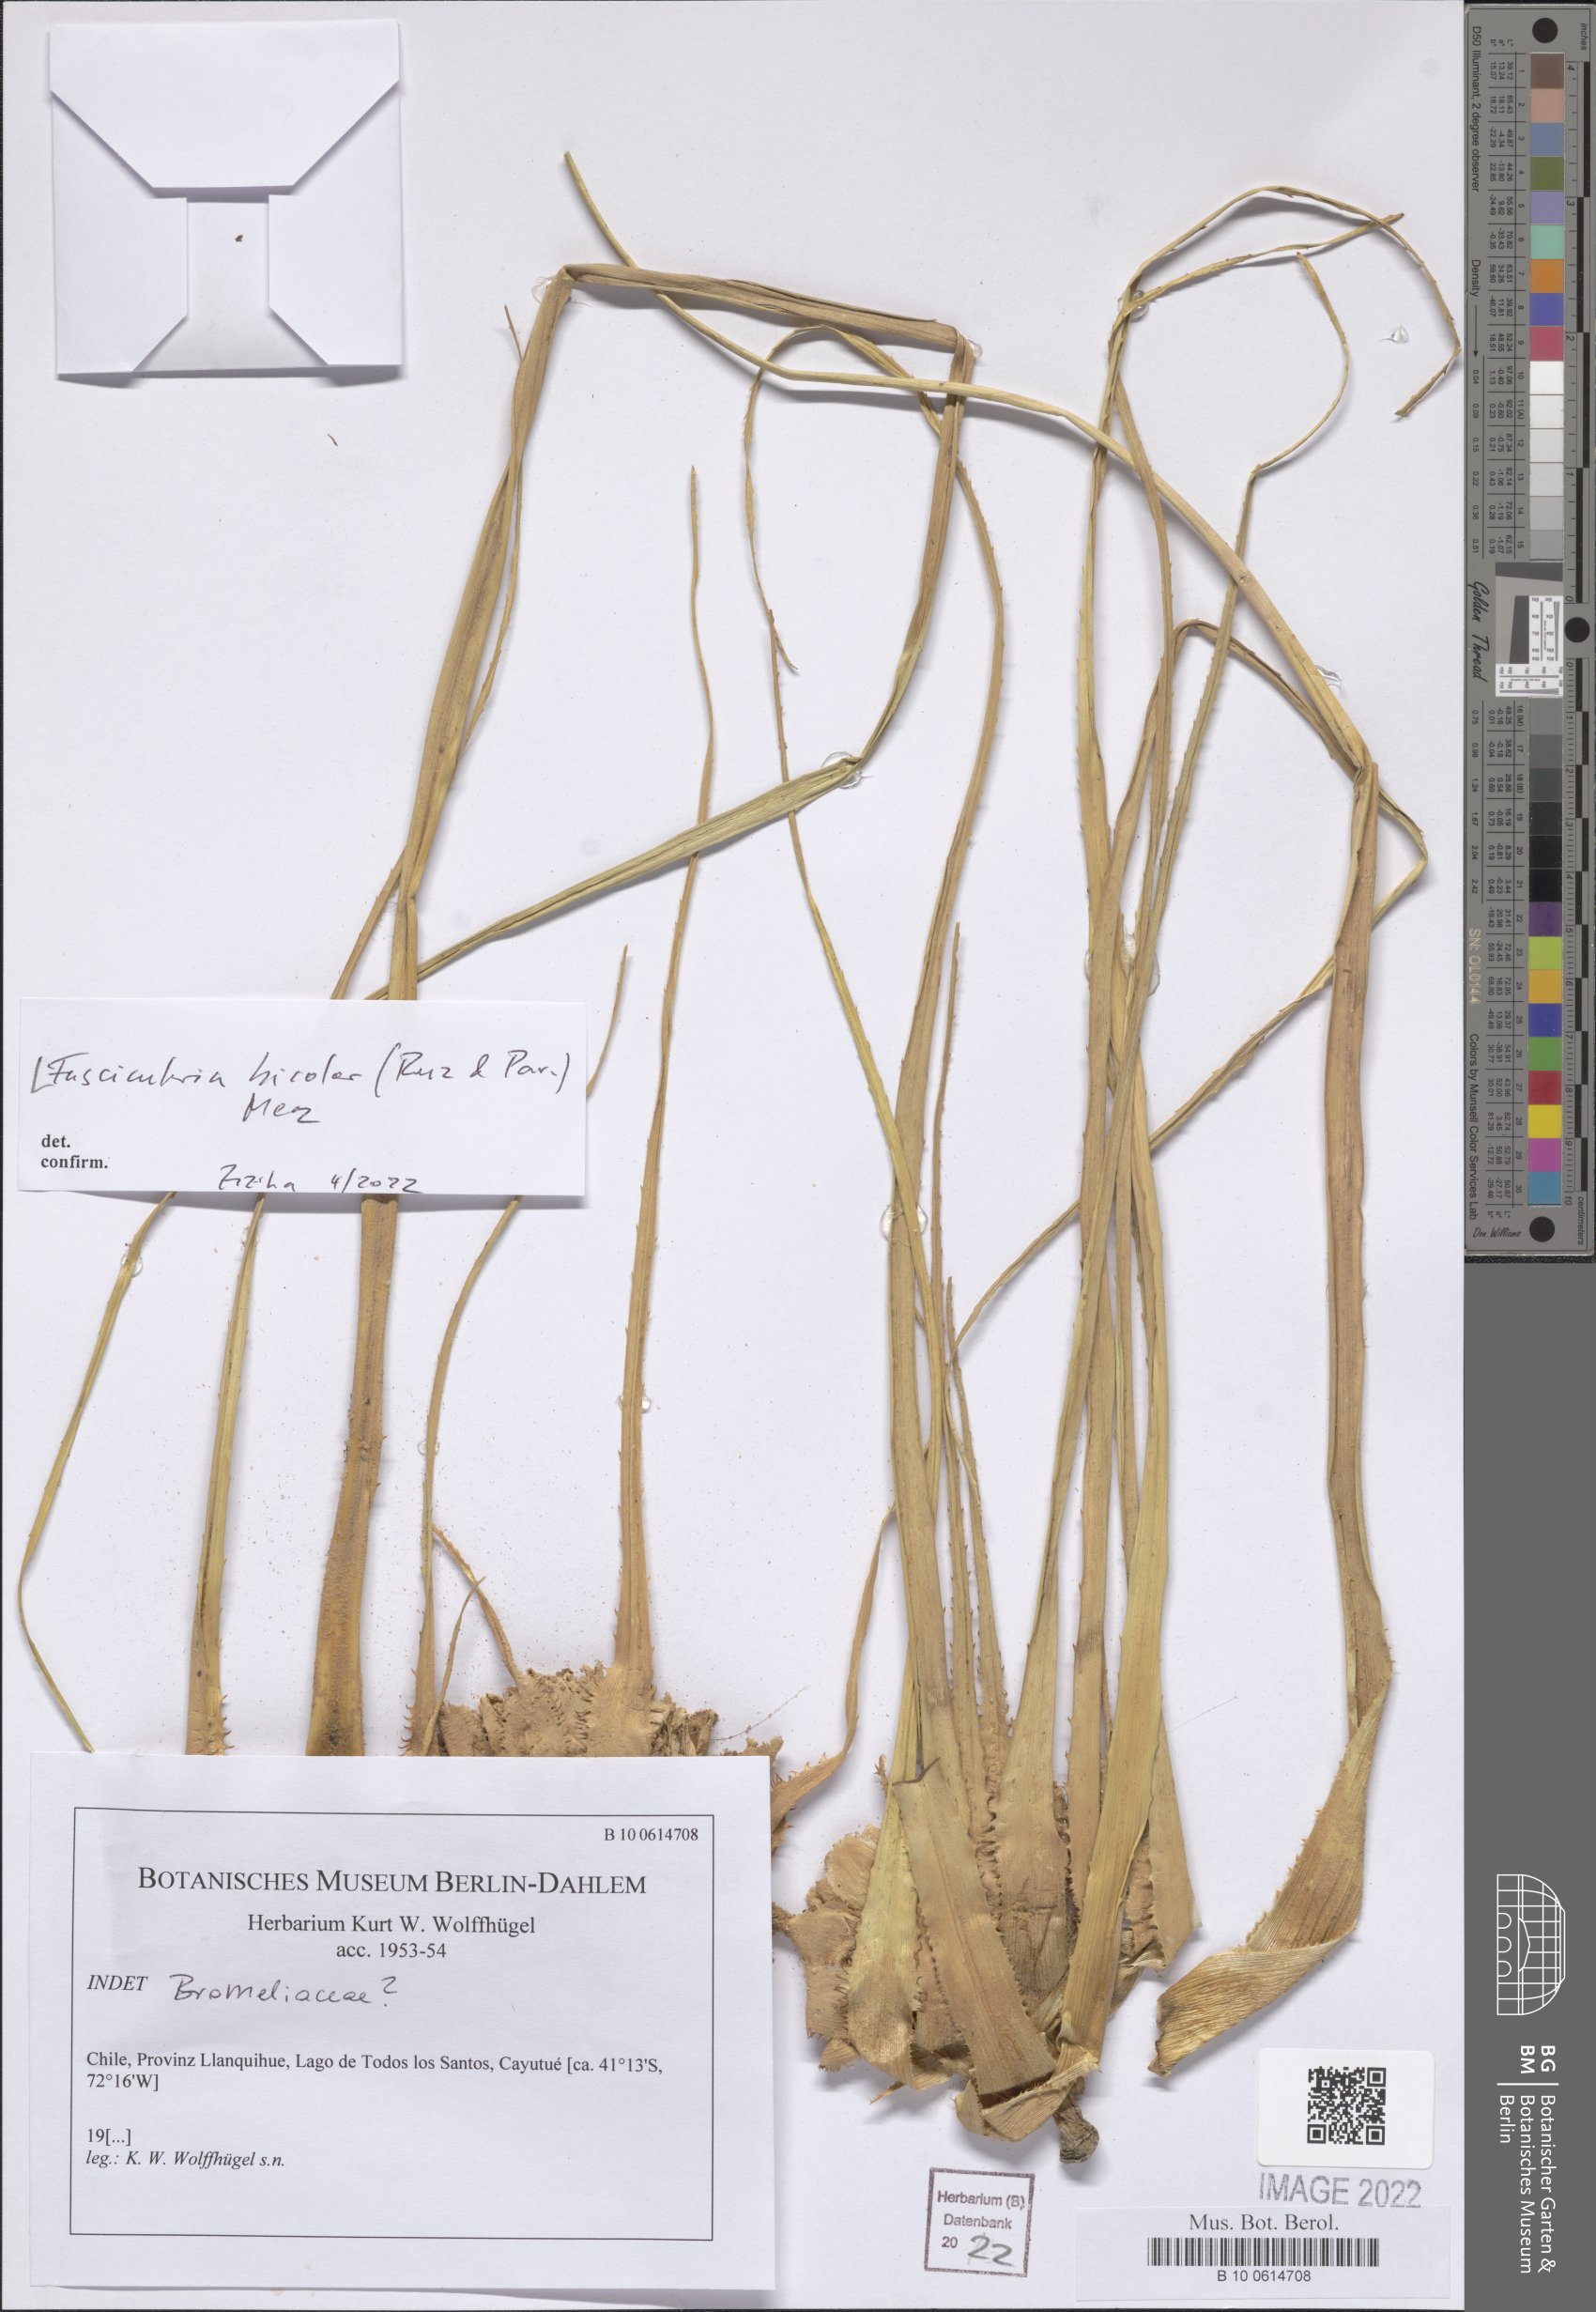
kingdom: Plantae
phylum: Tracheophyta
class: Liliopsida
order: Poales
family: Bromeliaceae
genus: Fascicularia
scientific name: Fascicularia bicolor
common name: Rhodostachys
